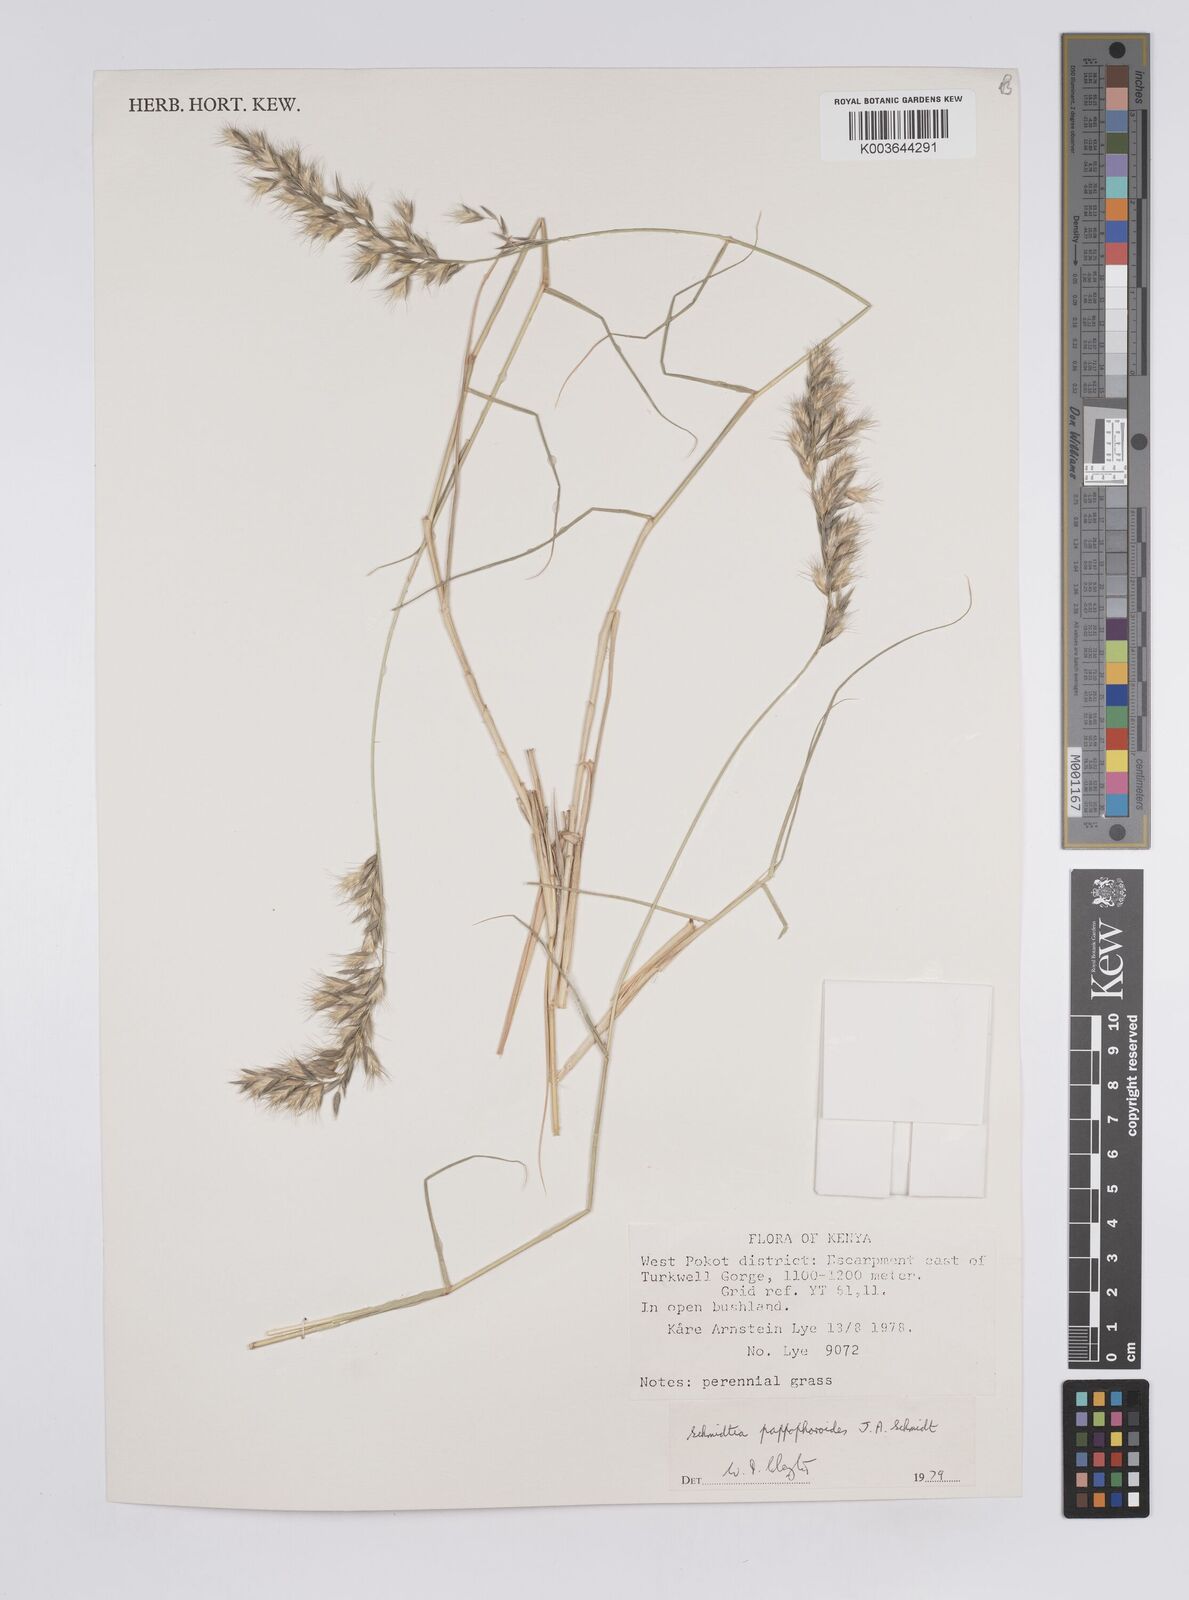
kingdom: Plantae
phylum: Tracheophyta
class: Liliopsida
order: Poales
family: Poaceae
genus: Schmidtia
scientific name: Schmidtia pappophoroides
